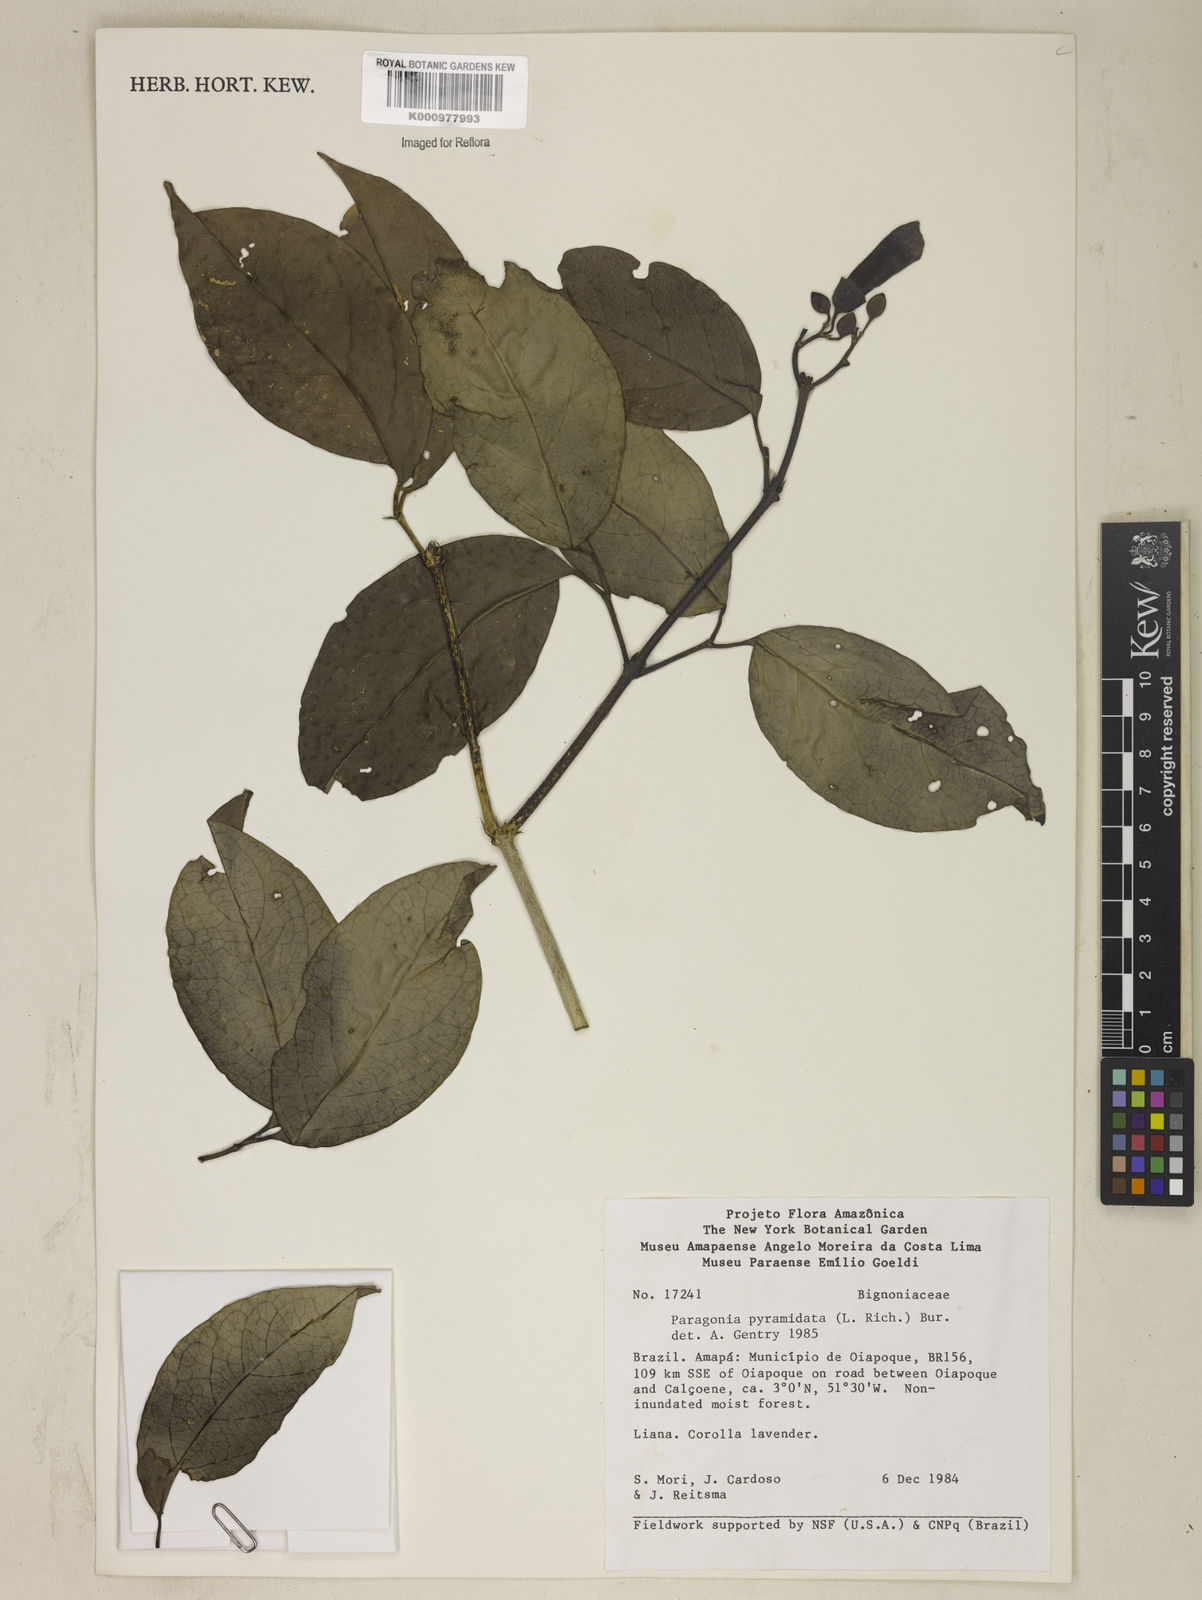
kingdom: Plantae
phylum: Tracheophyta
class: Magnoliopsida
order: Lamiales
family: Bignoniaceae
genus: Tanaecium
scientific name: Tanaecium pyramidatum
